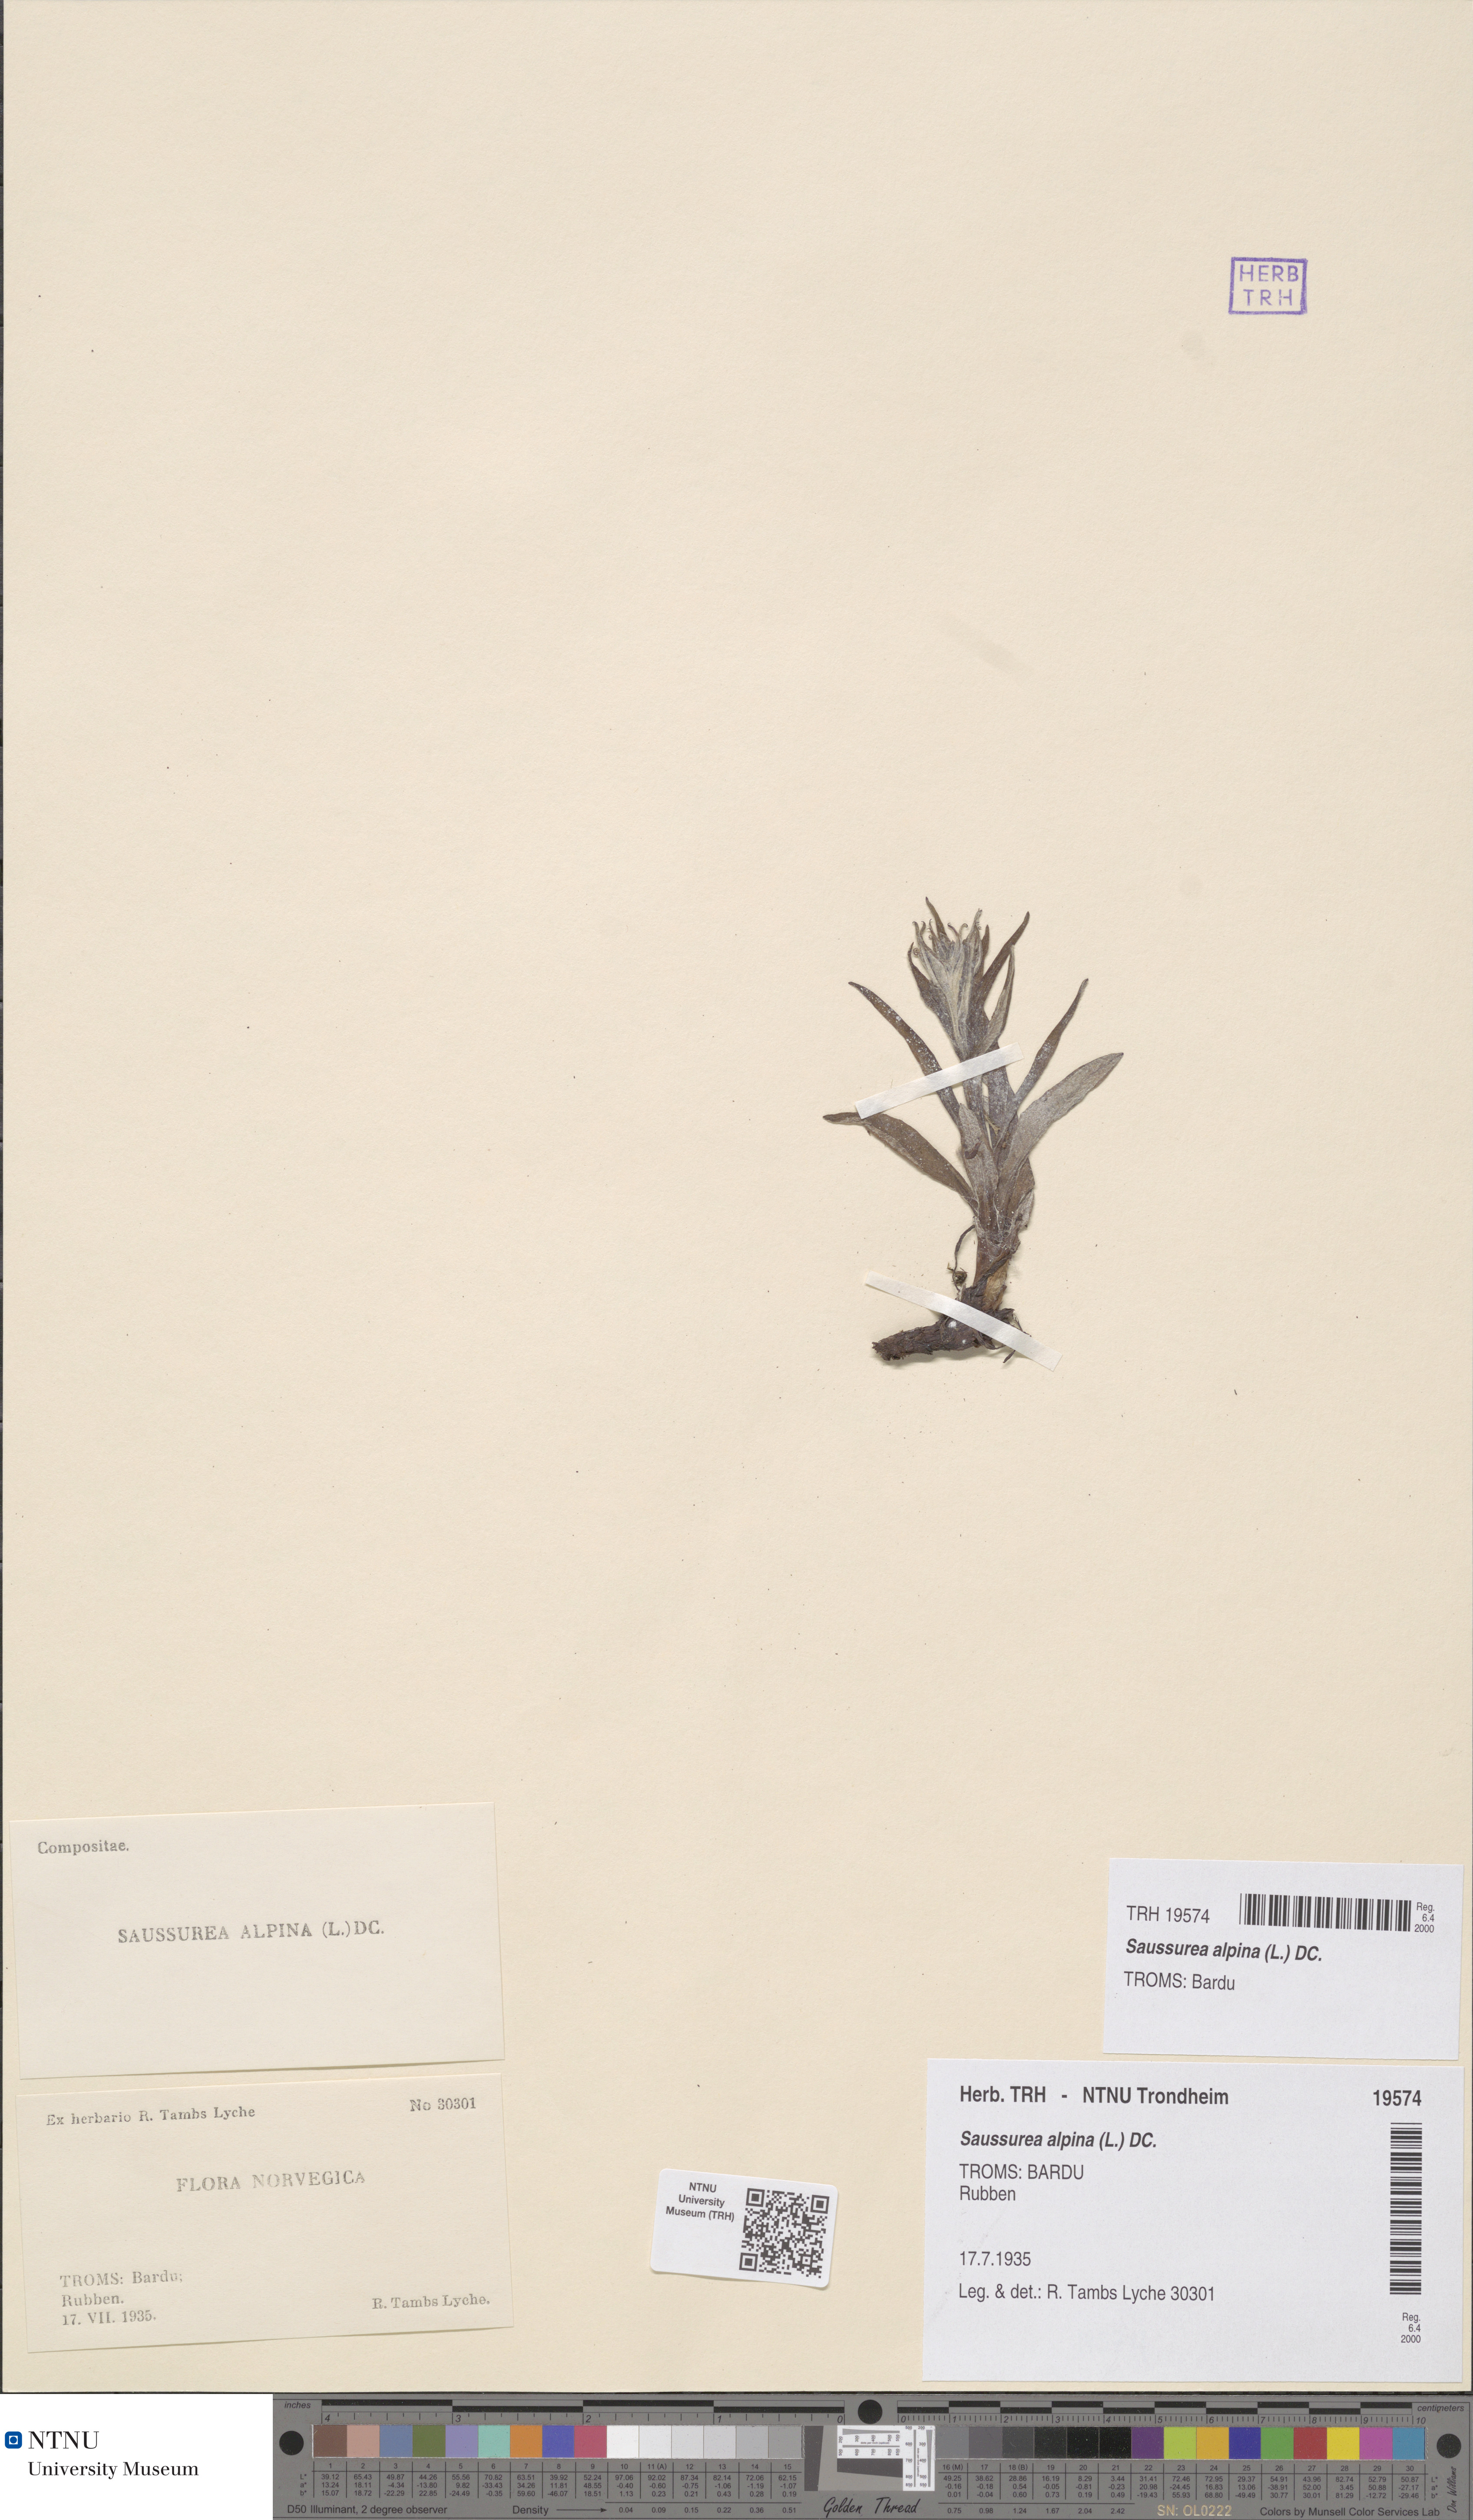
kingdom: Plantae
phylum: Tracheophyta
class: Magnoliopsida
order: Asterales
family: Asteraceae
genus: Saussurea
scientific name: Saussurea alpina
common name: Alpine saw-wort
